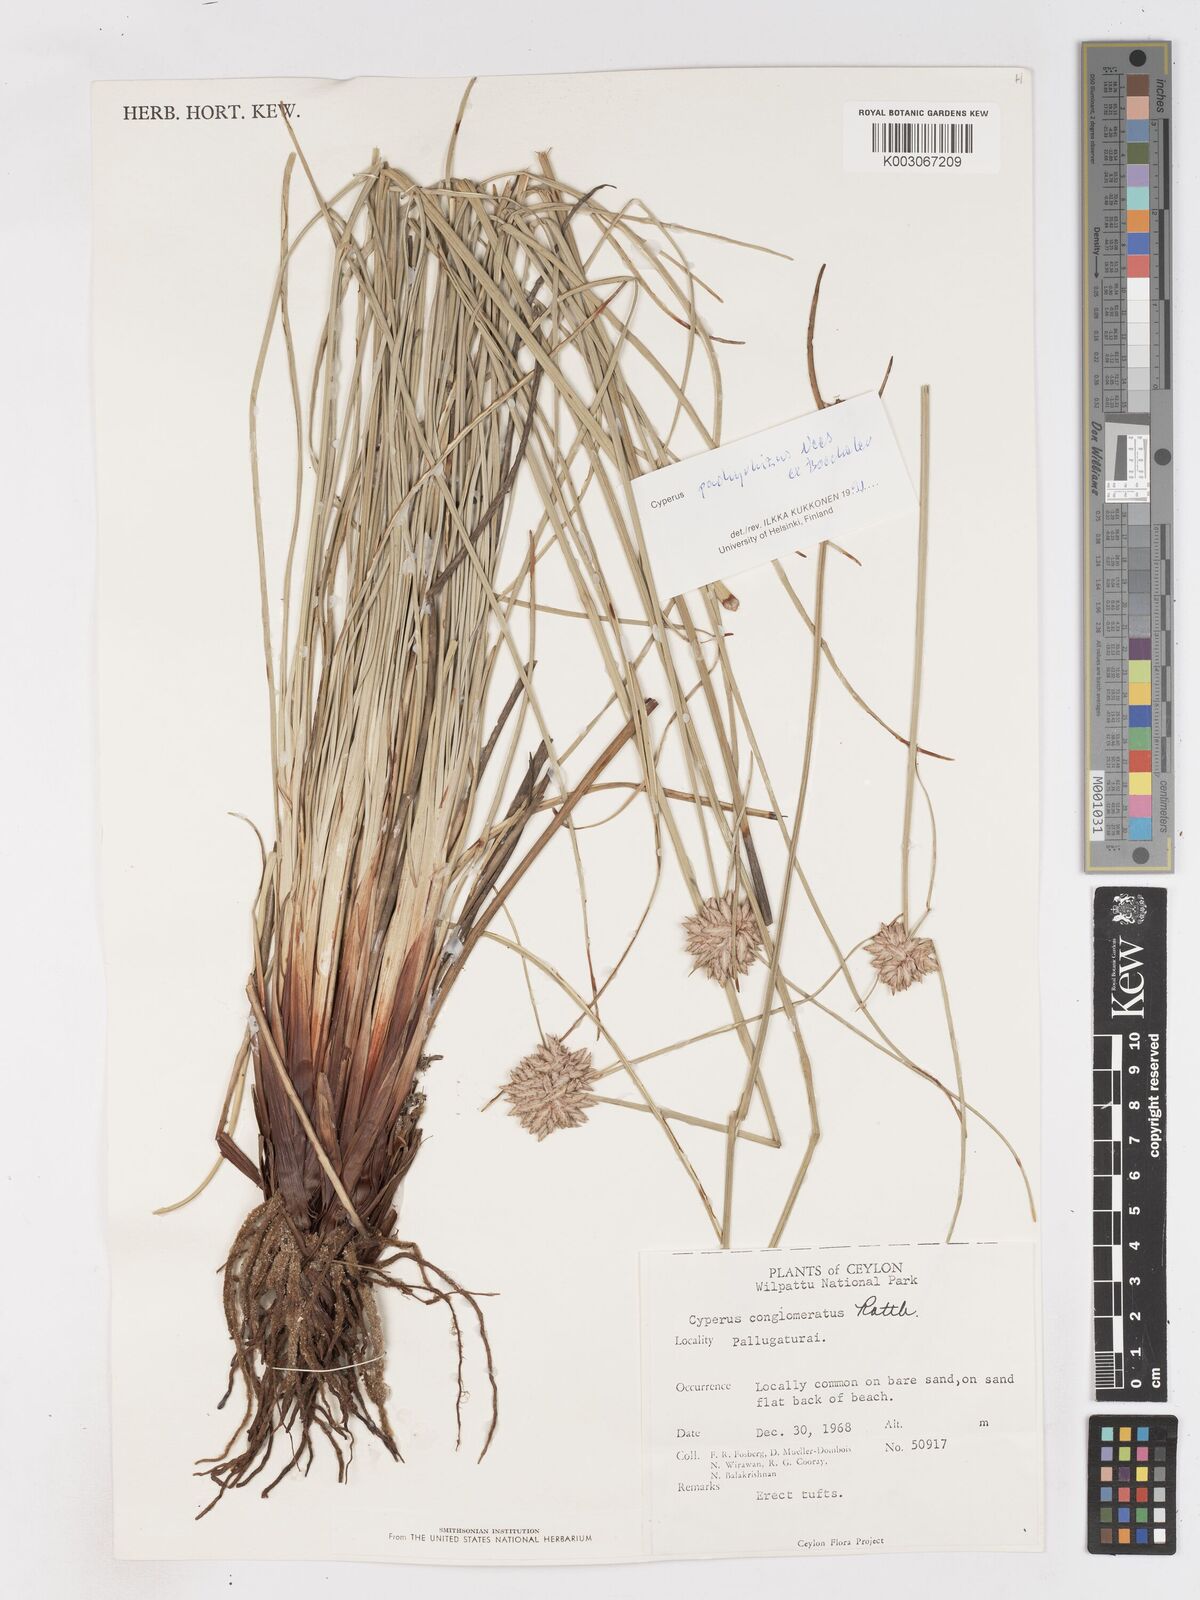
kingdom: Plantae
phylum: Tracheophyta
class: Liliopsida
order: Poales
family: Cyperaceae
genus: Cyperus
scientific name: Cyperus conglomeratus
